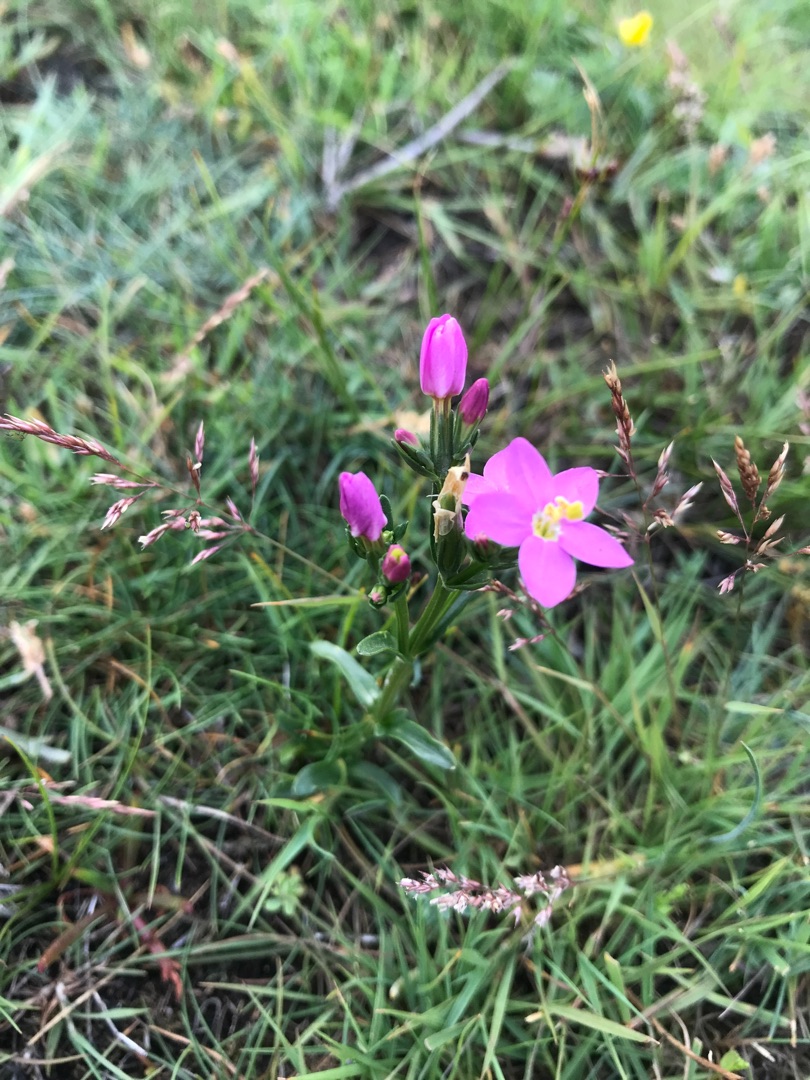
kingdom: Plantae
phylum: Tracheophyta
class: Magnoliopsida
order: Gentianales
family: Gentianaceae
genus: Centaurium
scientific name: Centaurium littorale
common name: Strand-tusindgylden
